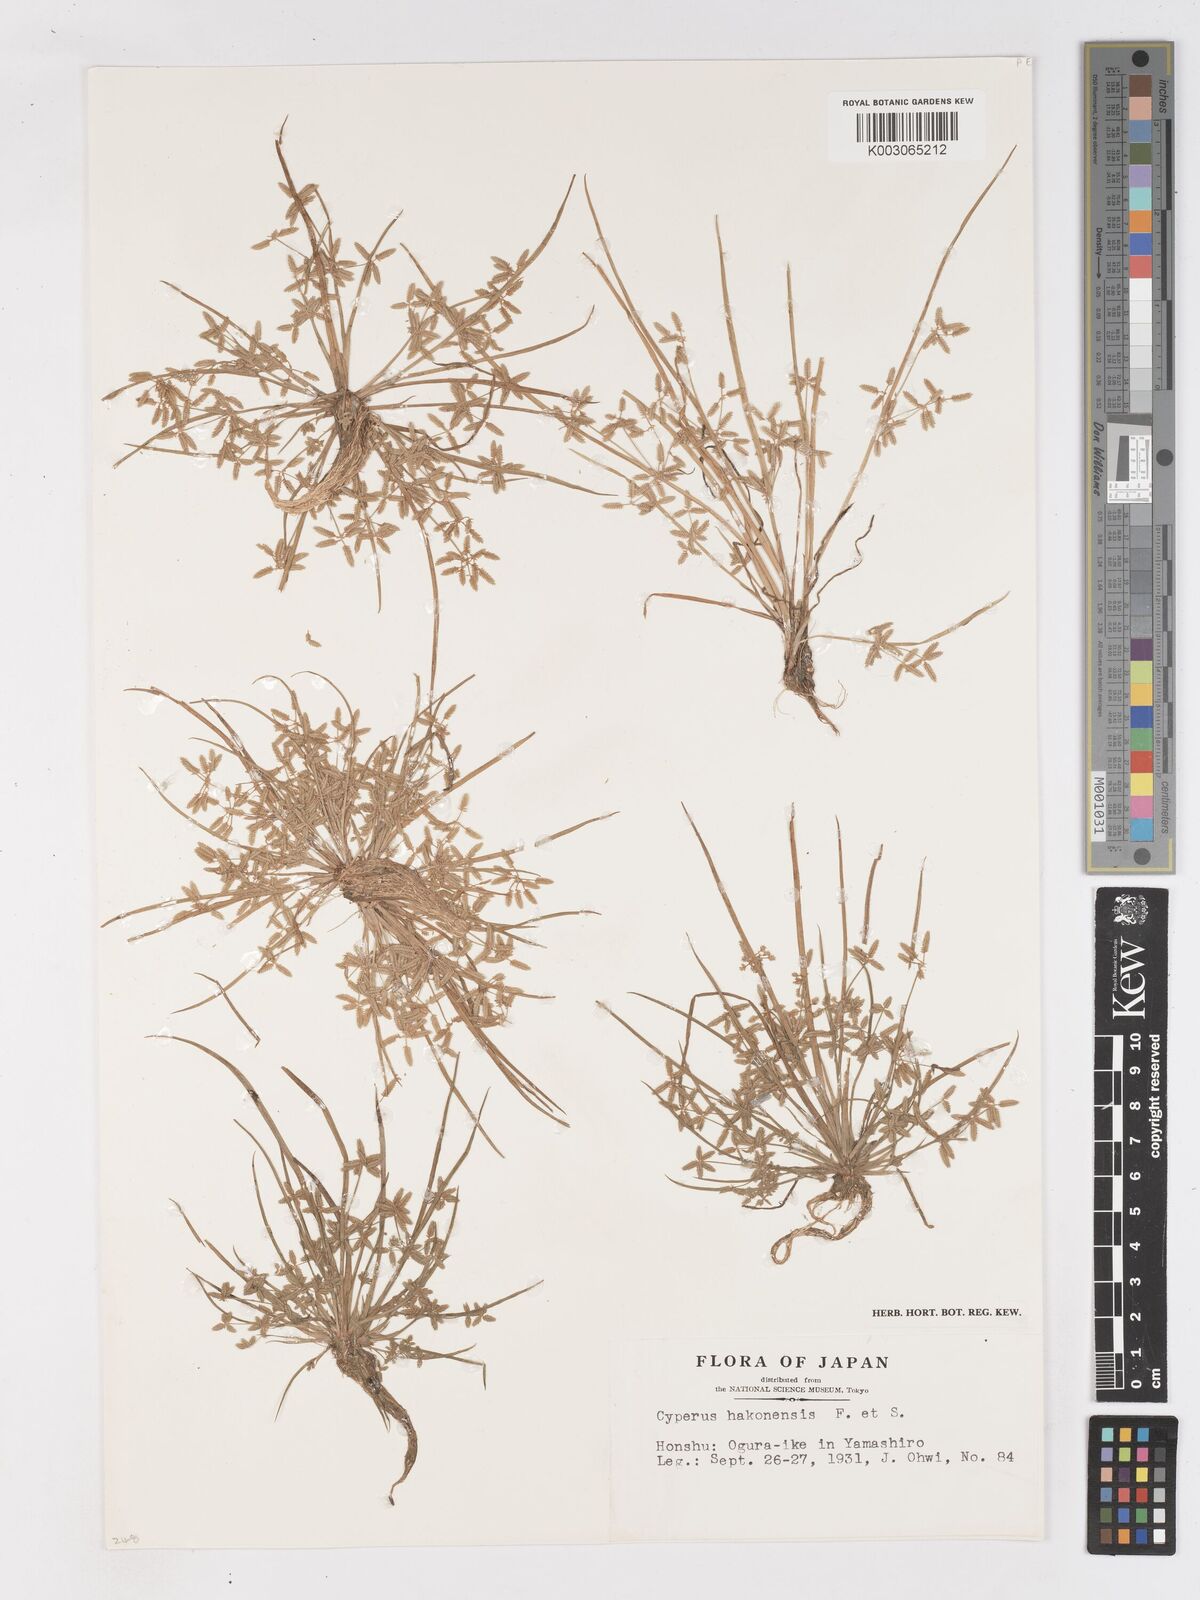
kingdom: Plantae
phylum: Tracheophyta
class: Liliopsida
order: Poales
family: Cyperaceae
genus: Cyperus
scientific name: Cyperus flaccidus
